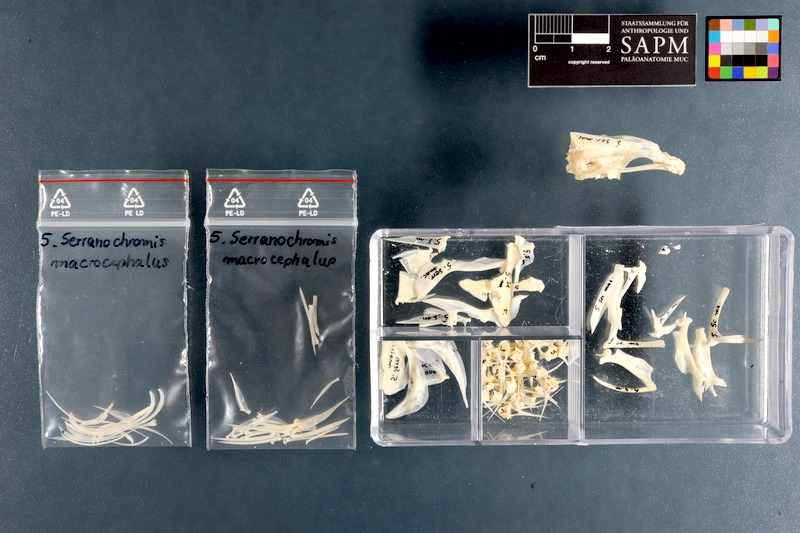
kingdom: Animalia
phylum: Chordata
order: Perciformes
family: Cichlidae
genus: Serranochromis
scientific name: Serranochromis macrocephalus
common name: Purpleface largemouth
